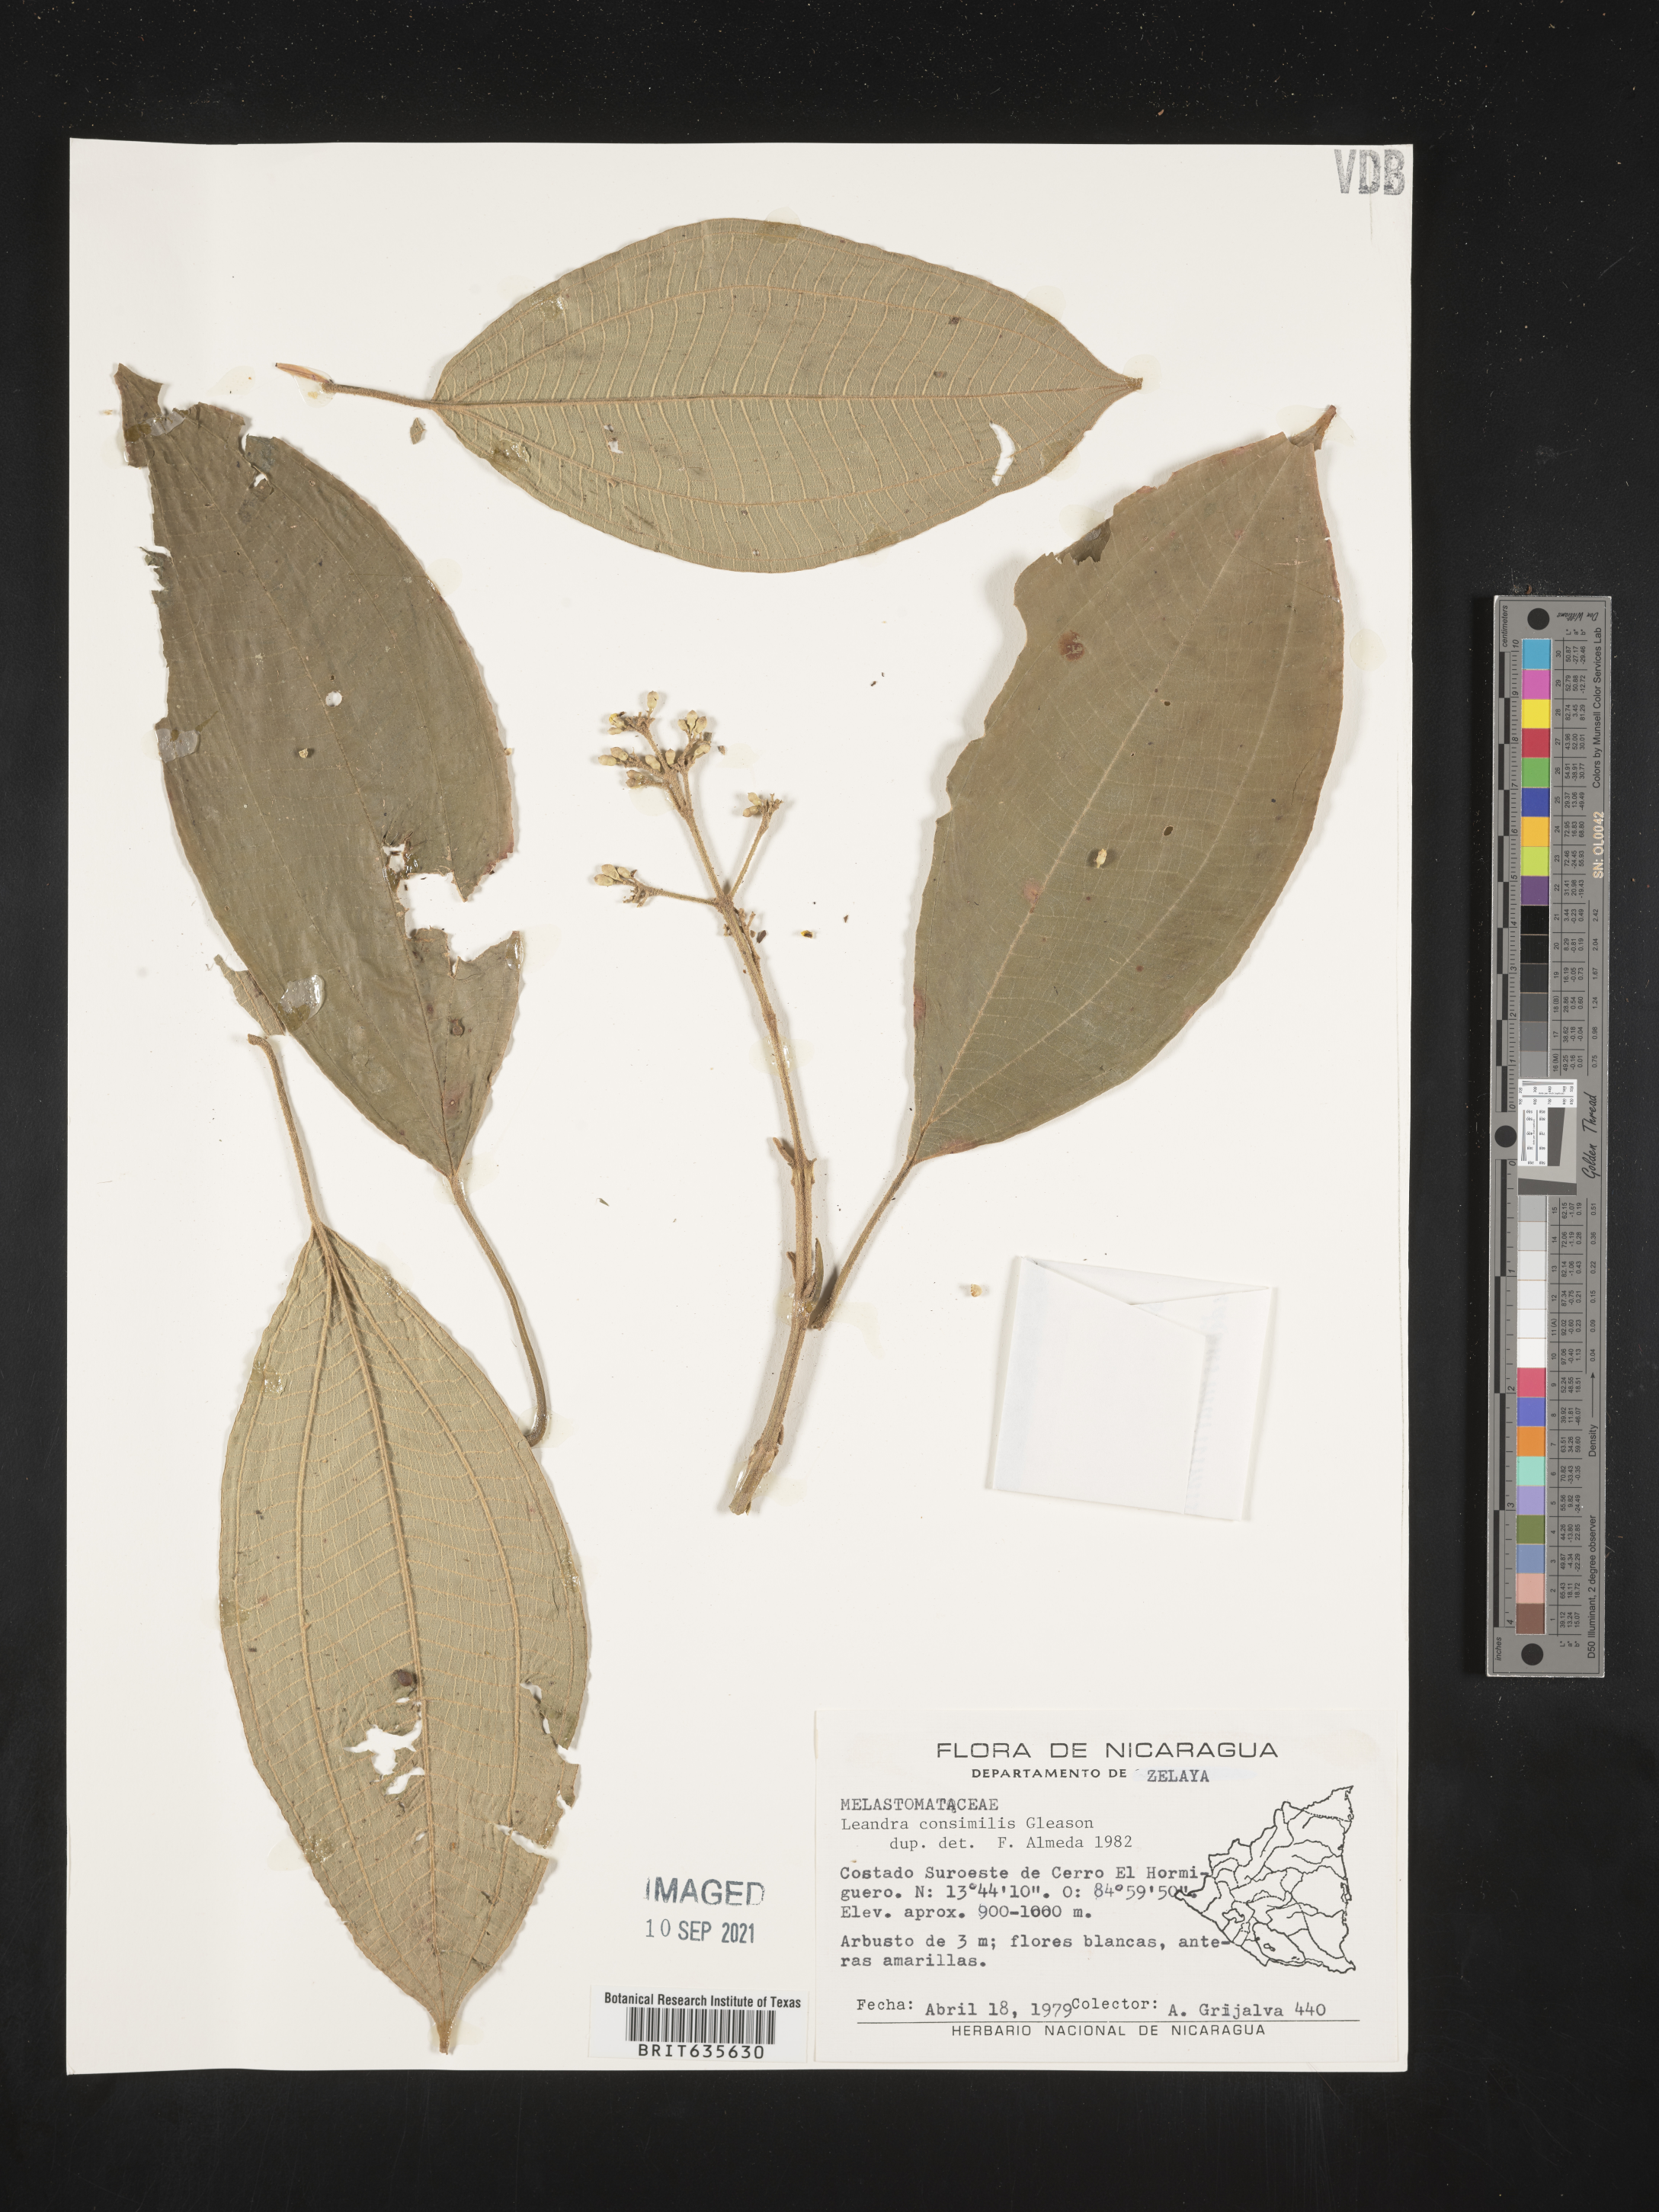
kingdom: Plantae
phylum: Tracheophyta
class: Magnoliopsida
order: Myrtales
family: Melastomataceae
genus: Miconia
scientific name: Miconia
